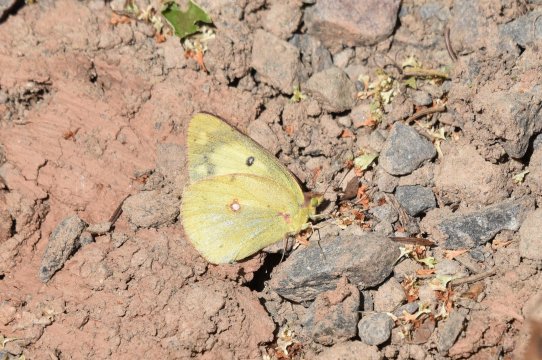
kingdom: Animalia
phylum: Arthropoda
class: Insecta
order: Lepidoptera
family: Pieridae
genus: Colias
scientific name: Colias philodice
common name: Clouded Sulphur
